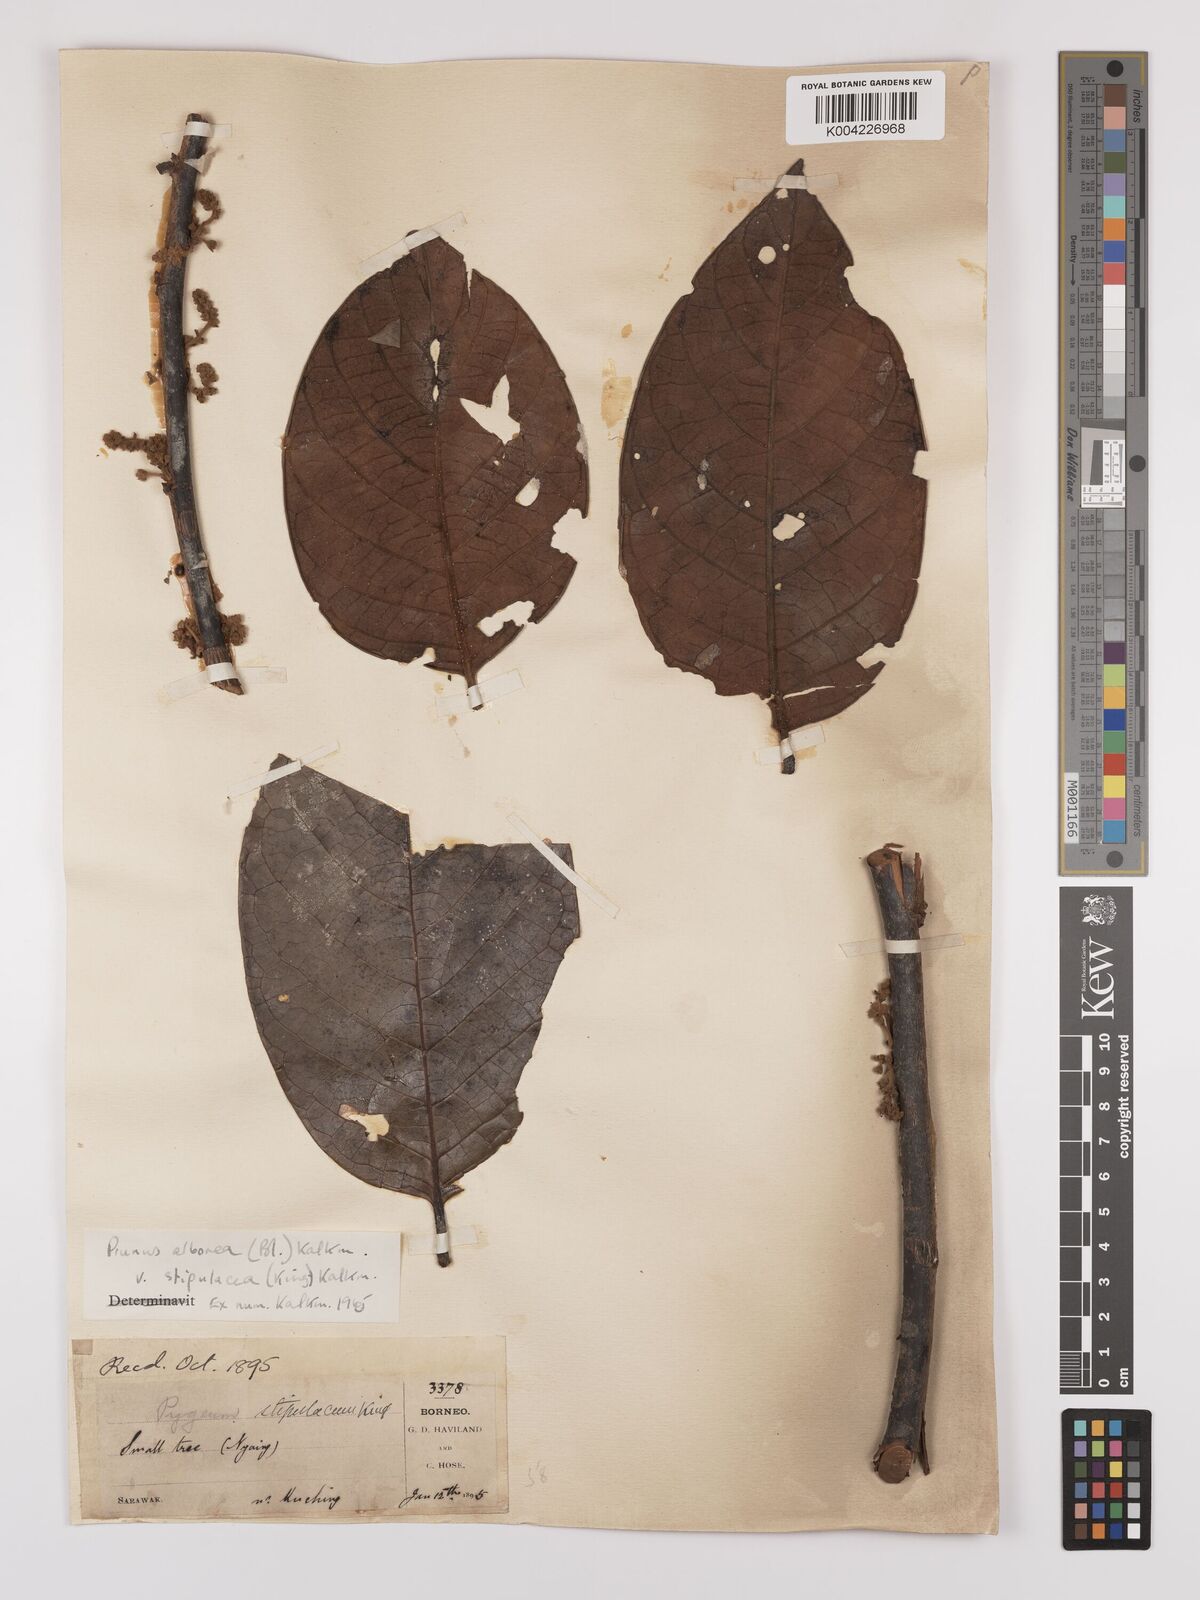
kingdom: Plantae
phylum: Tracheophyta
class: Magnoliopsida
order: Rosales
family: Rosaceae
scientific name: Rosaceae
